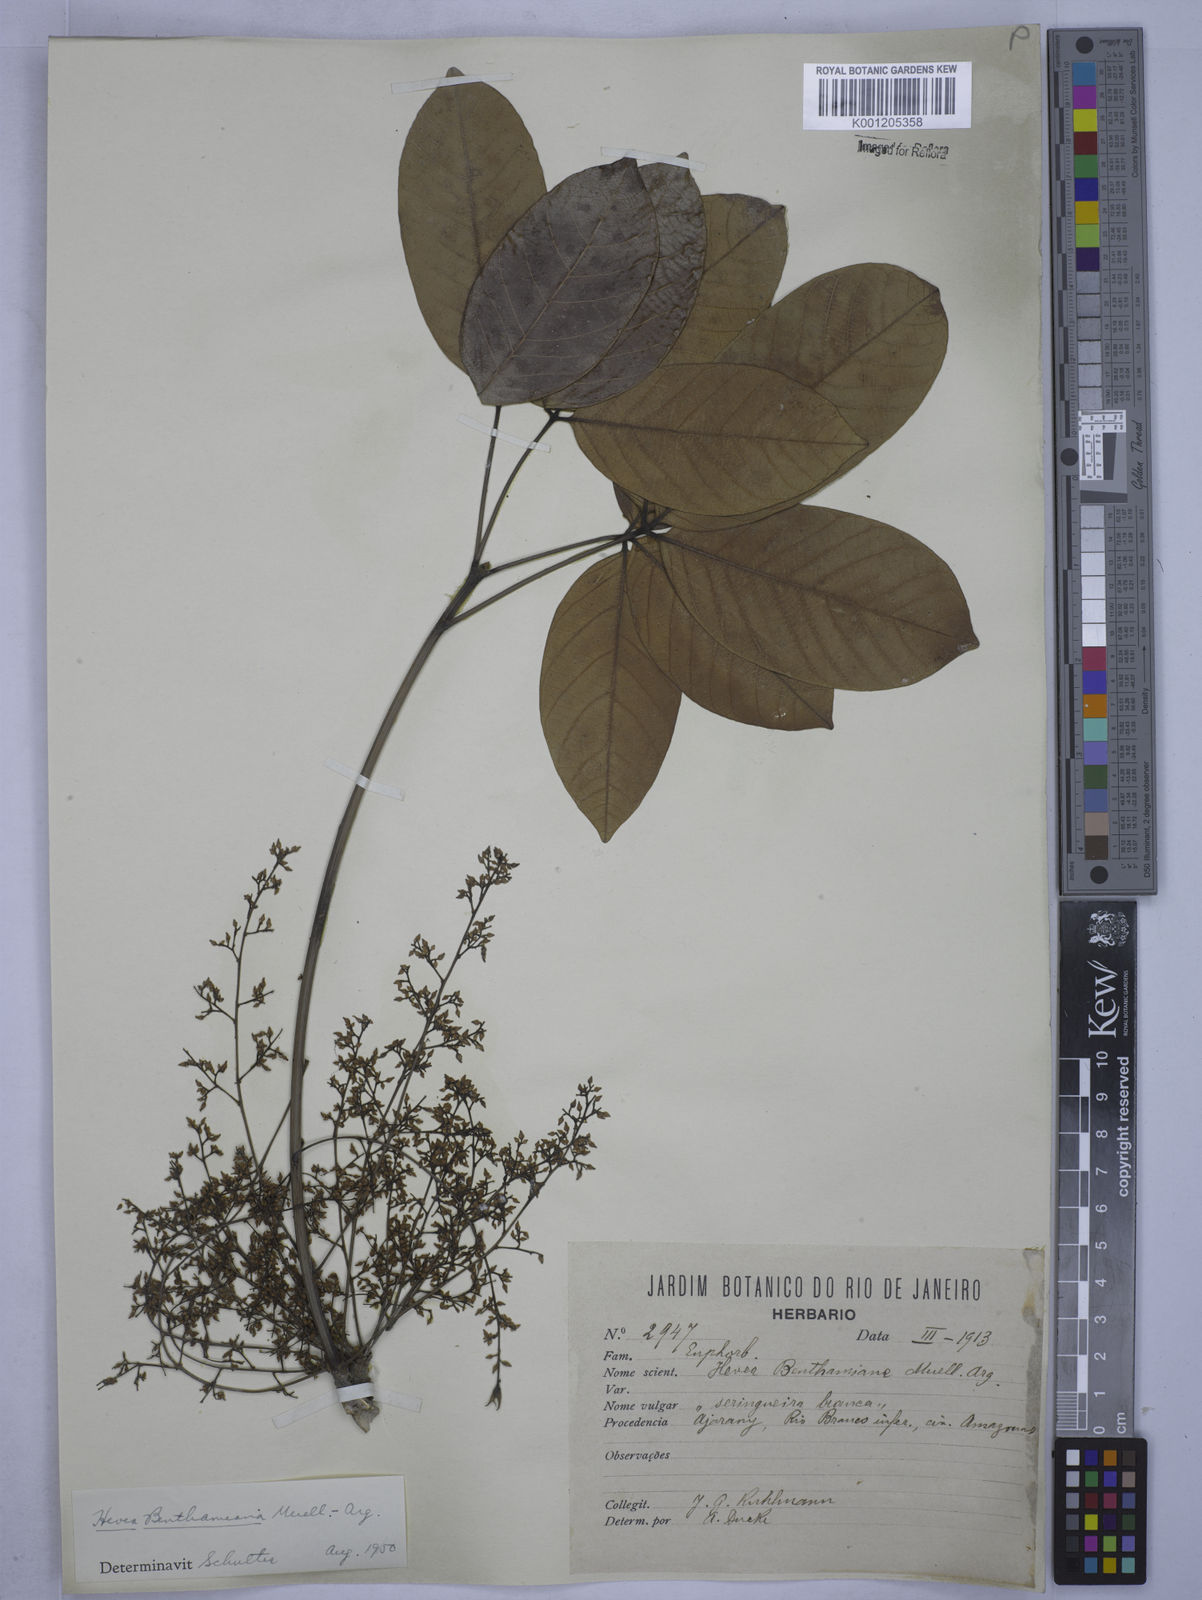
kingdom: Plantae
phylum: Tracheophyta
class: Magnoliopsida
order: Malpighiales
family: Euphorbiaceae
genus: Hevea
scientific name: Hevea
